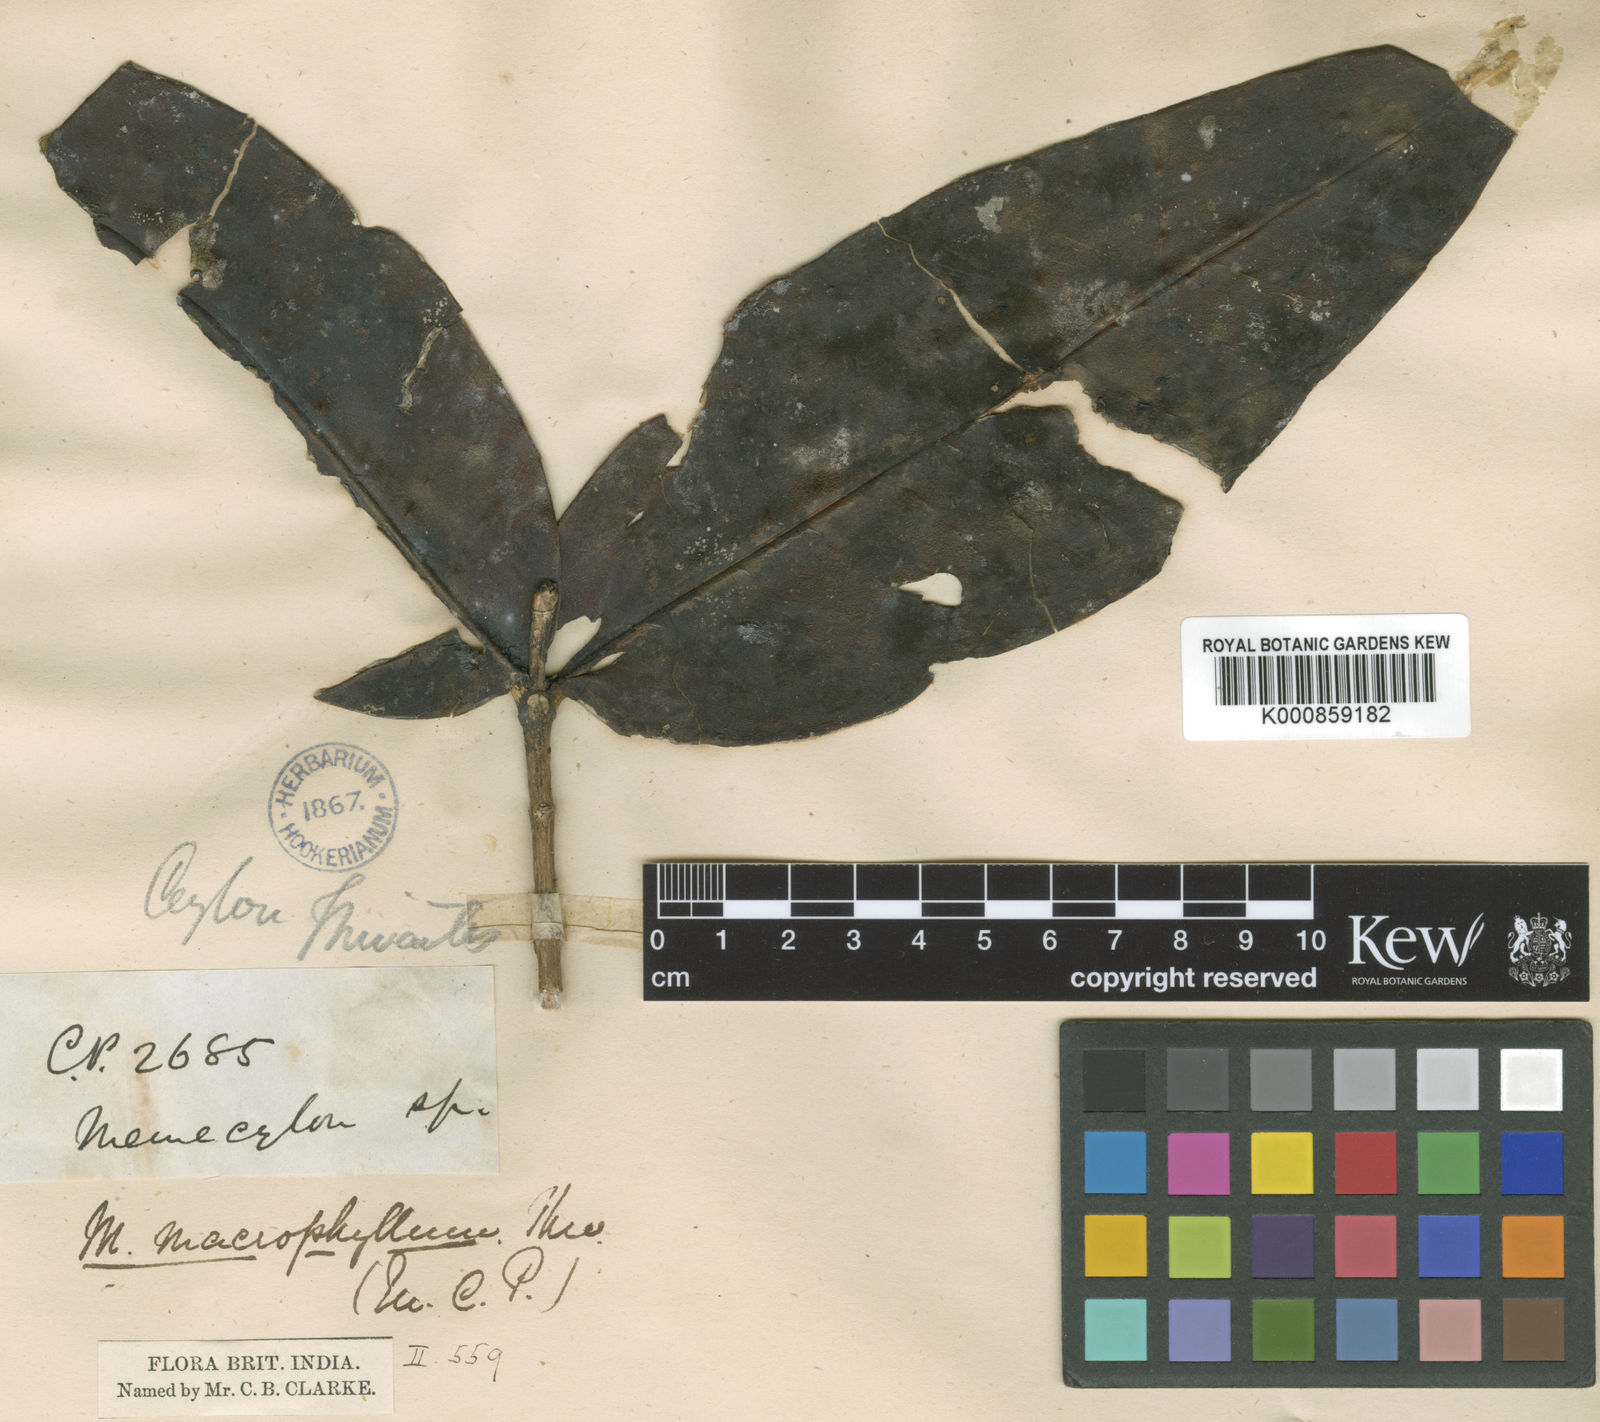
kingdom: Plantae
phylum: Tracheophyta
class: Magnoliopsida
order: Myrtales
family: Melastomataceae
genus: Memecylon
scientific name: Memecylon macrophyllum
